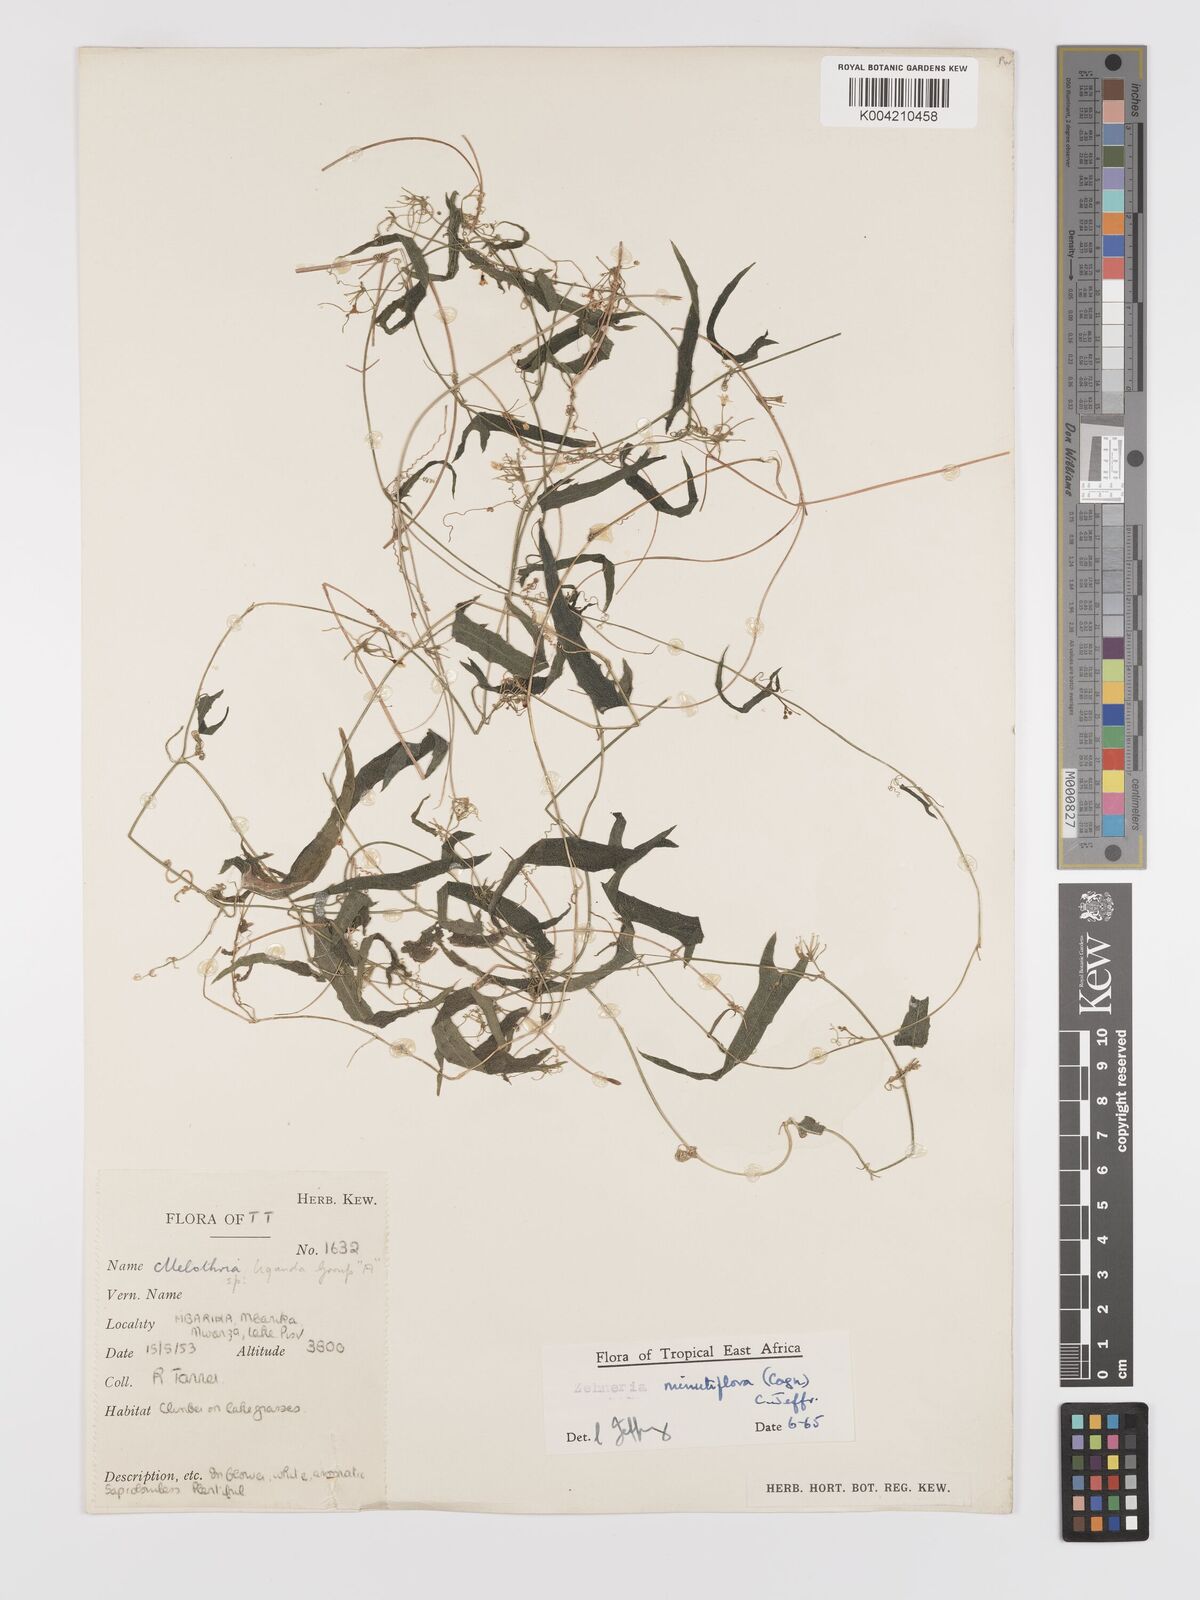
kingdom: Plantae
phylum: Tracheophyta
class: Magnoliopsida
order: Cucurbitales
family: Cucurbitaceae
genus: Zehneria
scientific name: Zehneria minutiflora
